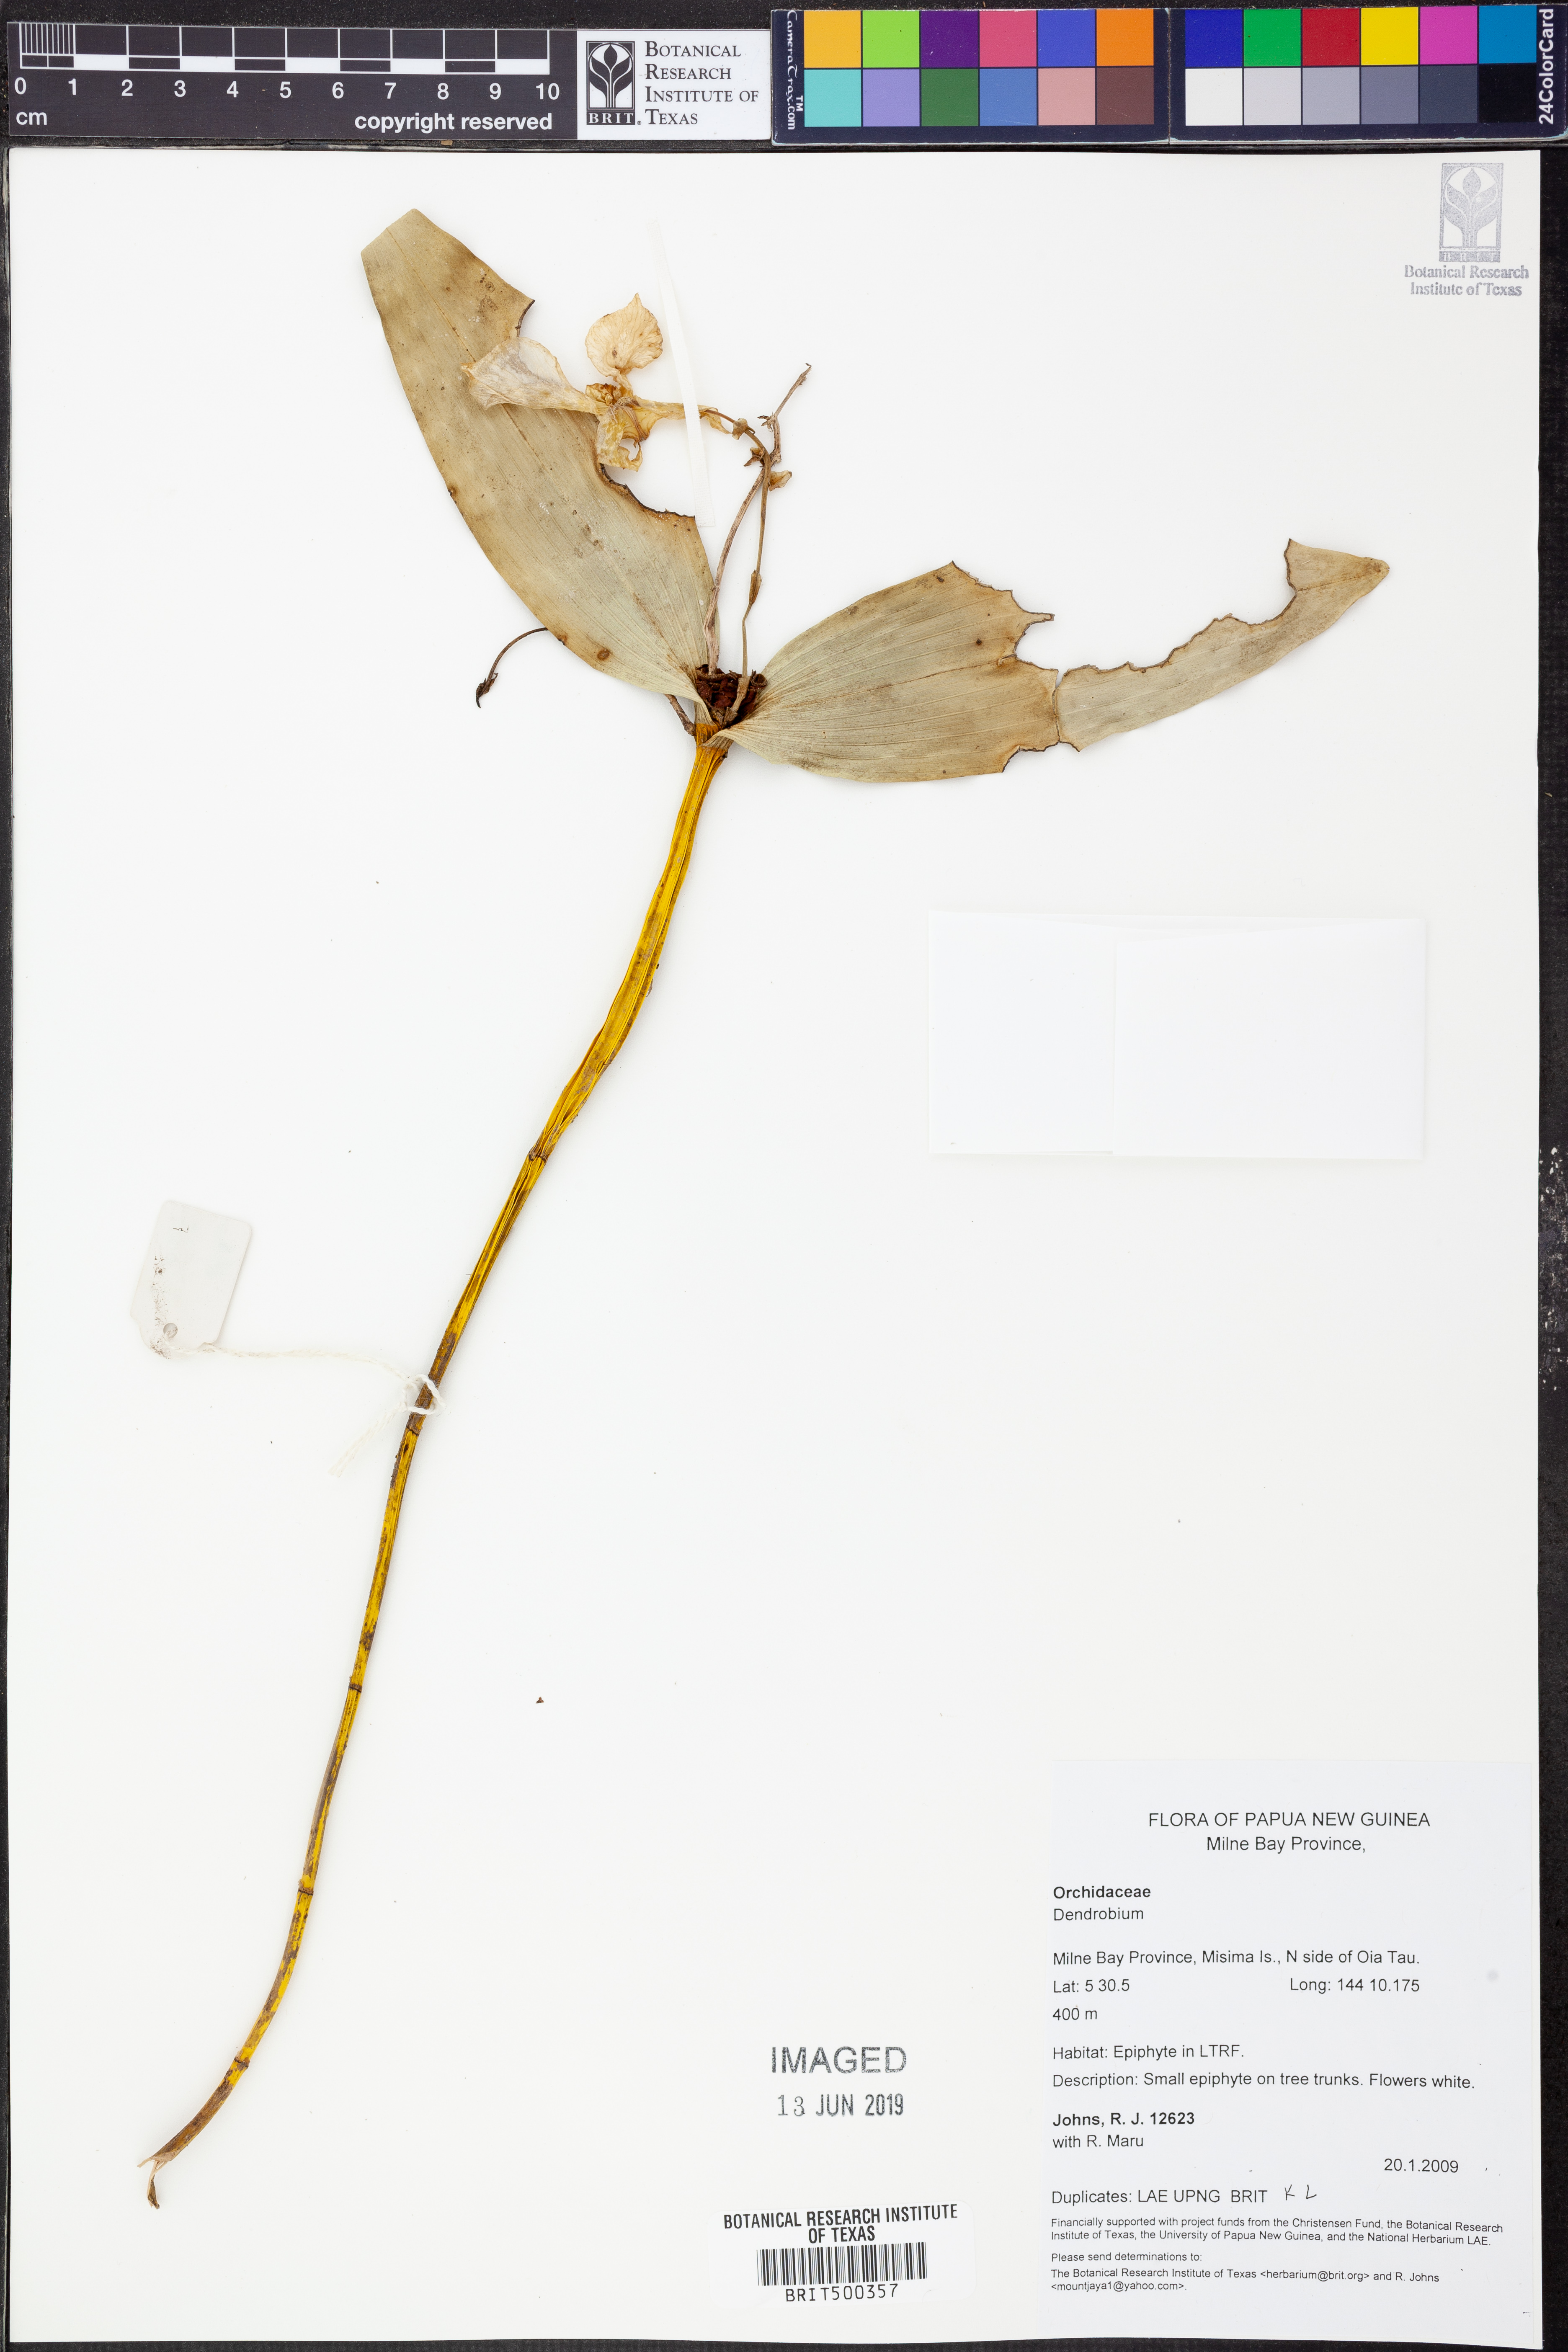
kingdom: Plantae
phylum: Tracheophyta
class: Liliopsida
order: Asparagales
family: Orchidaceae
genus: Dendrobium
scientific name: Dendrobium
